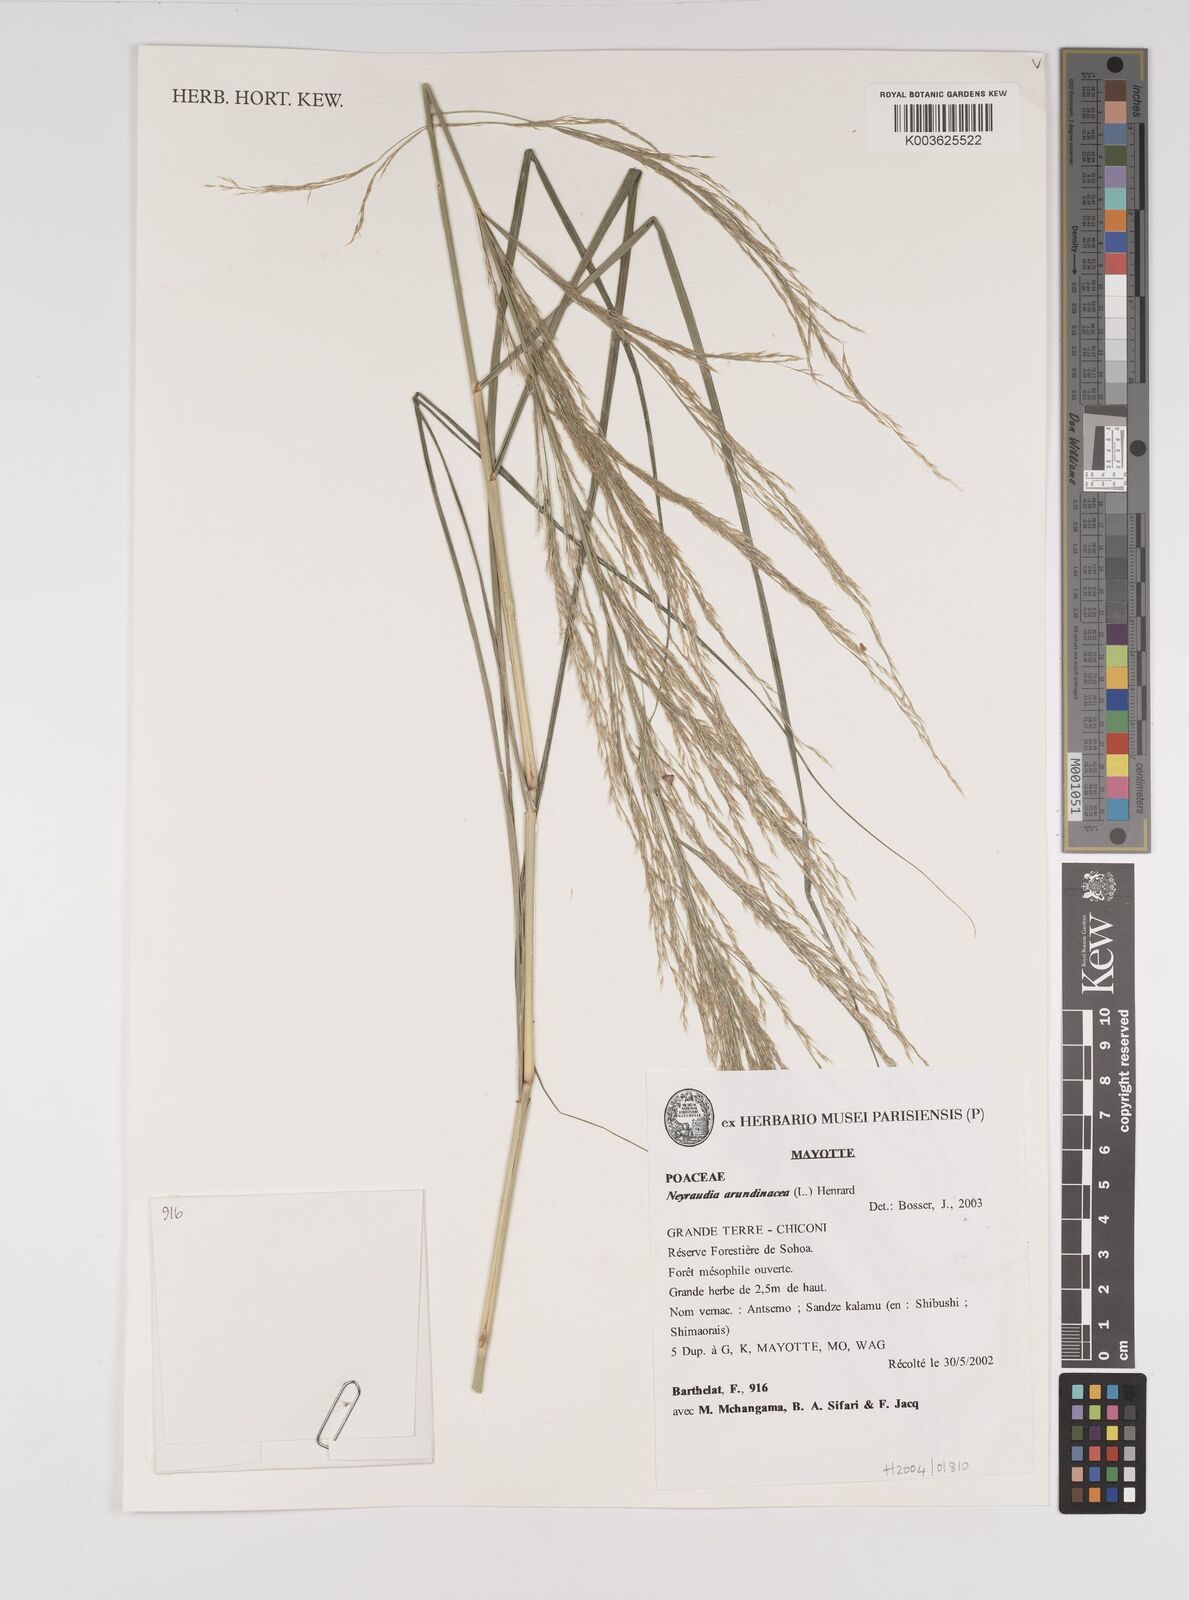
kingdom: Plantae
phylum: Tracheophyta
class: Liliopsida
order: Poales
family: Poaceae
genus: Neyraudia
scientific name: Neyraudia arundinacea
